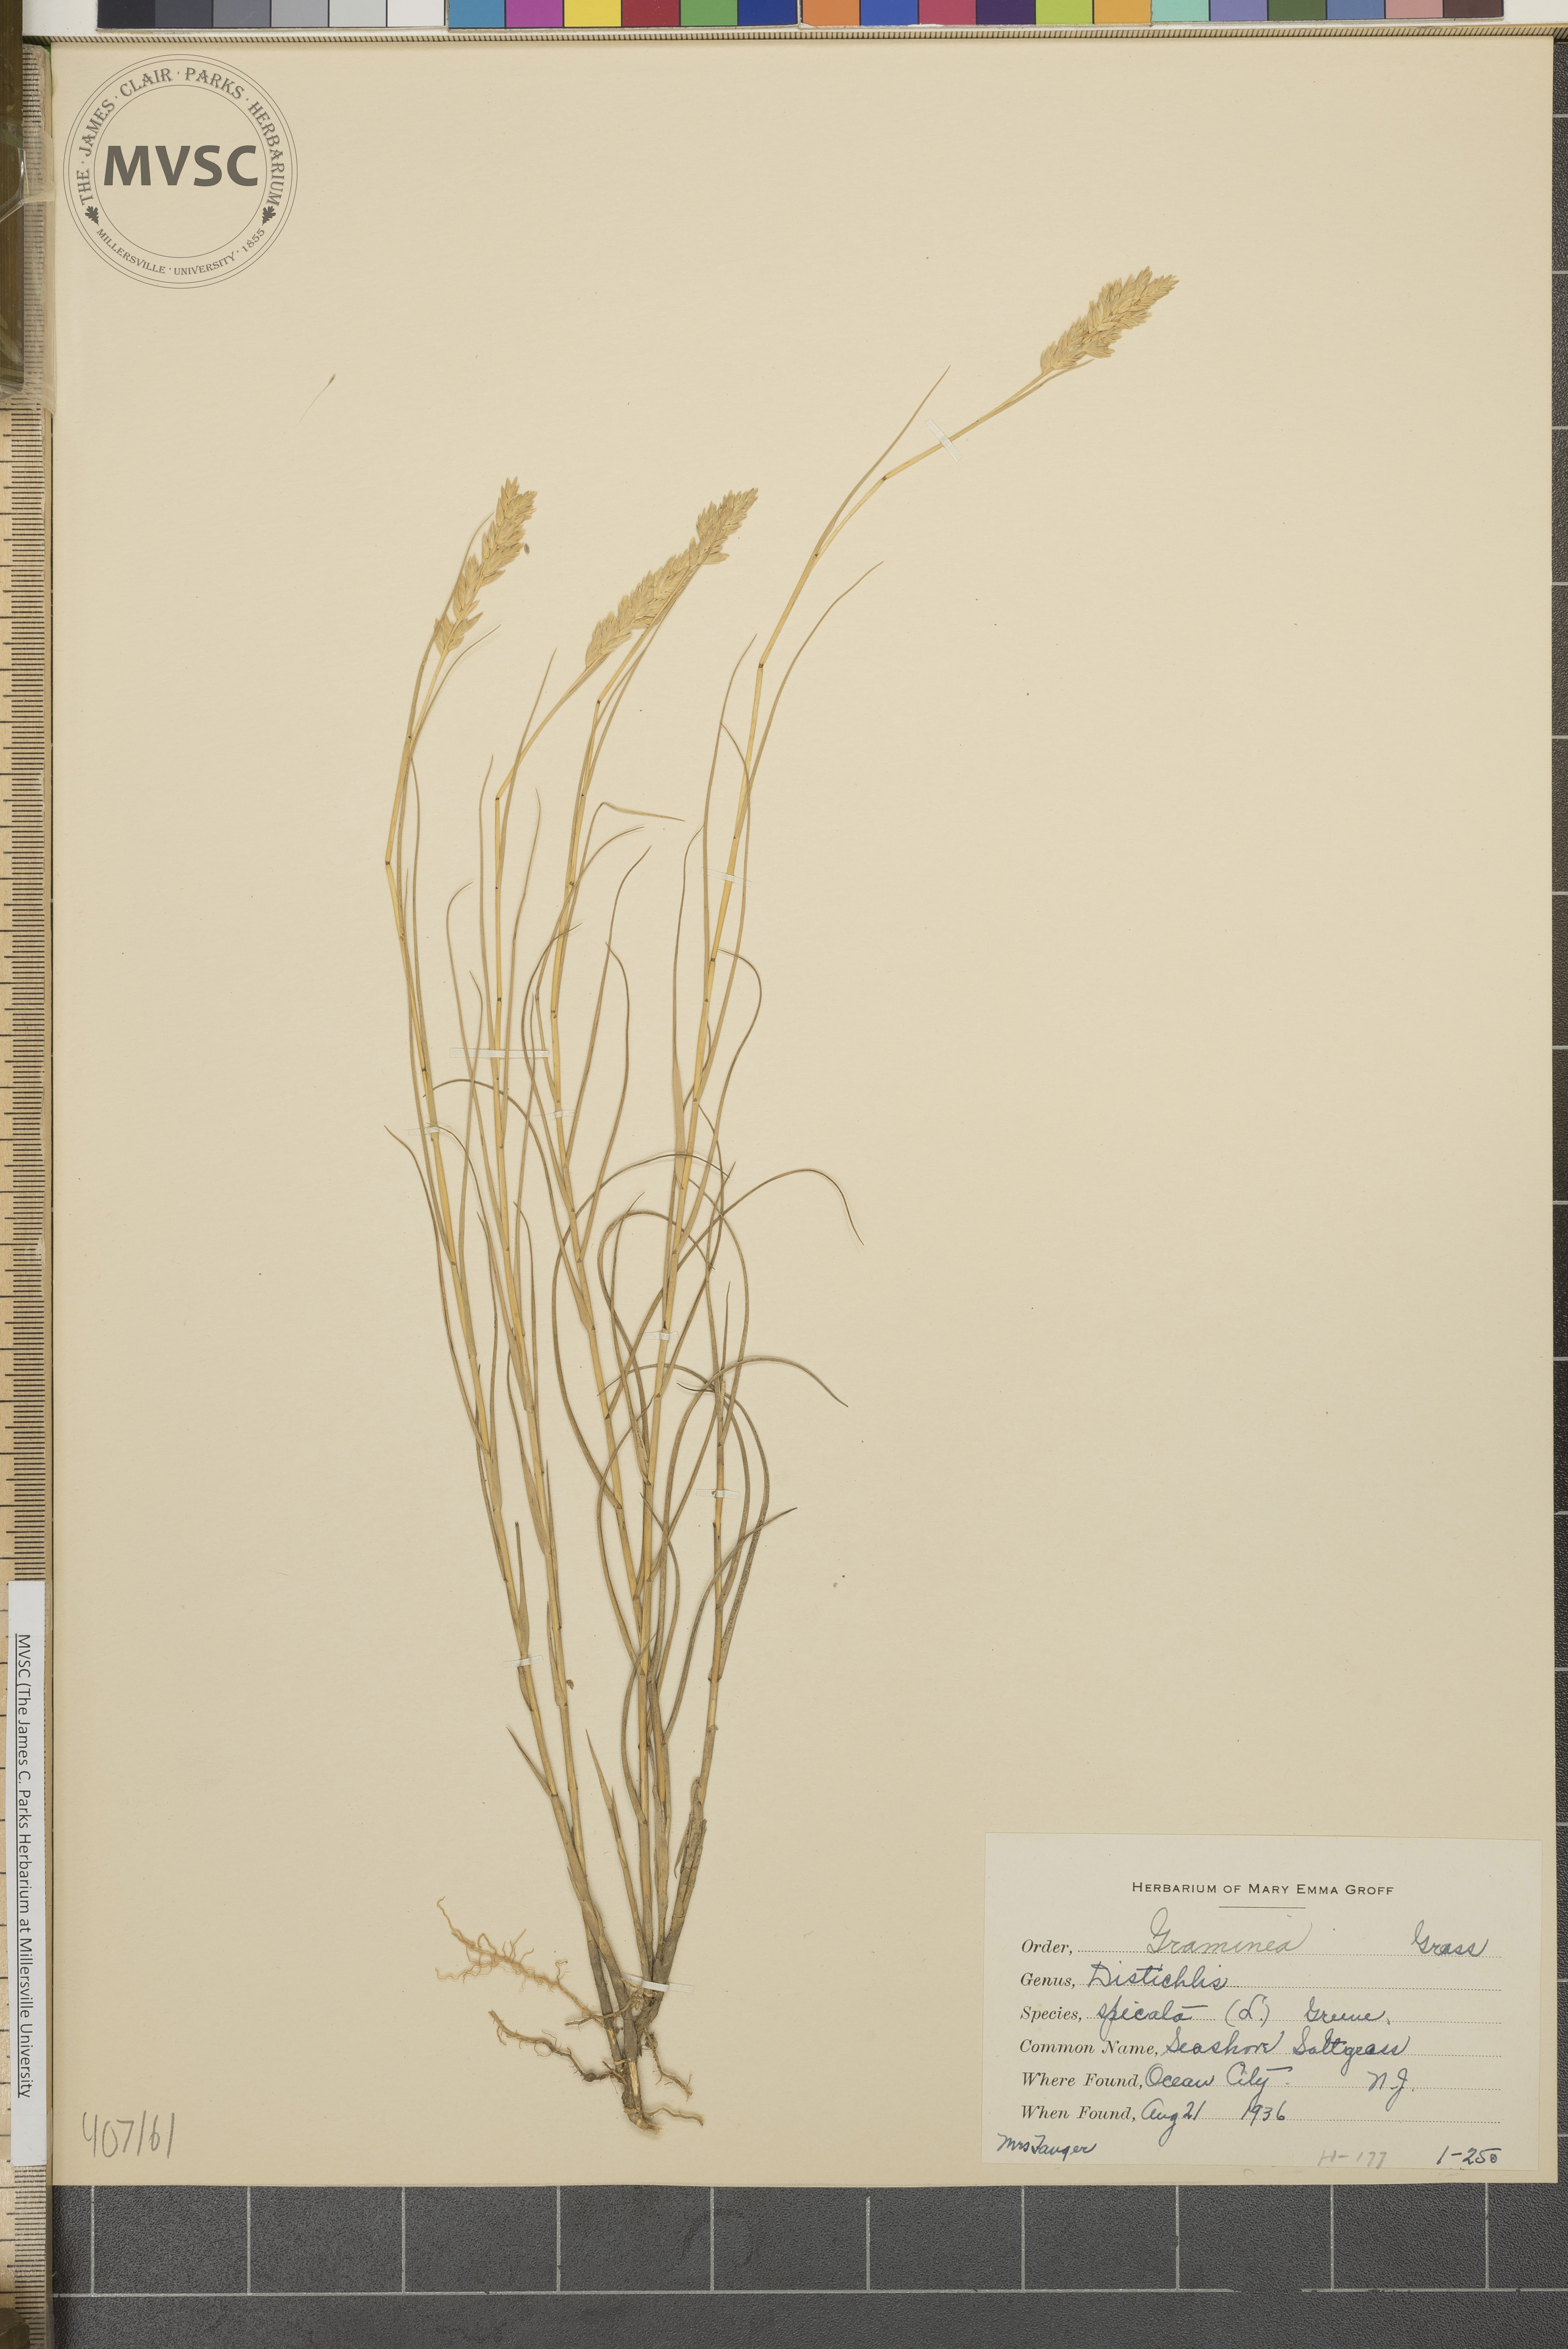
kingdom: Plantae
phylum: Tracheophyta
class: Liliopsida
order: Poales
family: Poaceae
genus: Distichlis
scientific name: Distichlis spicata
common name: Saltgrass
